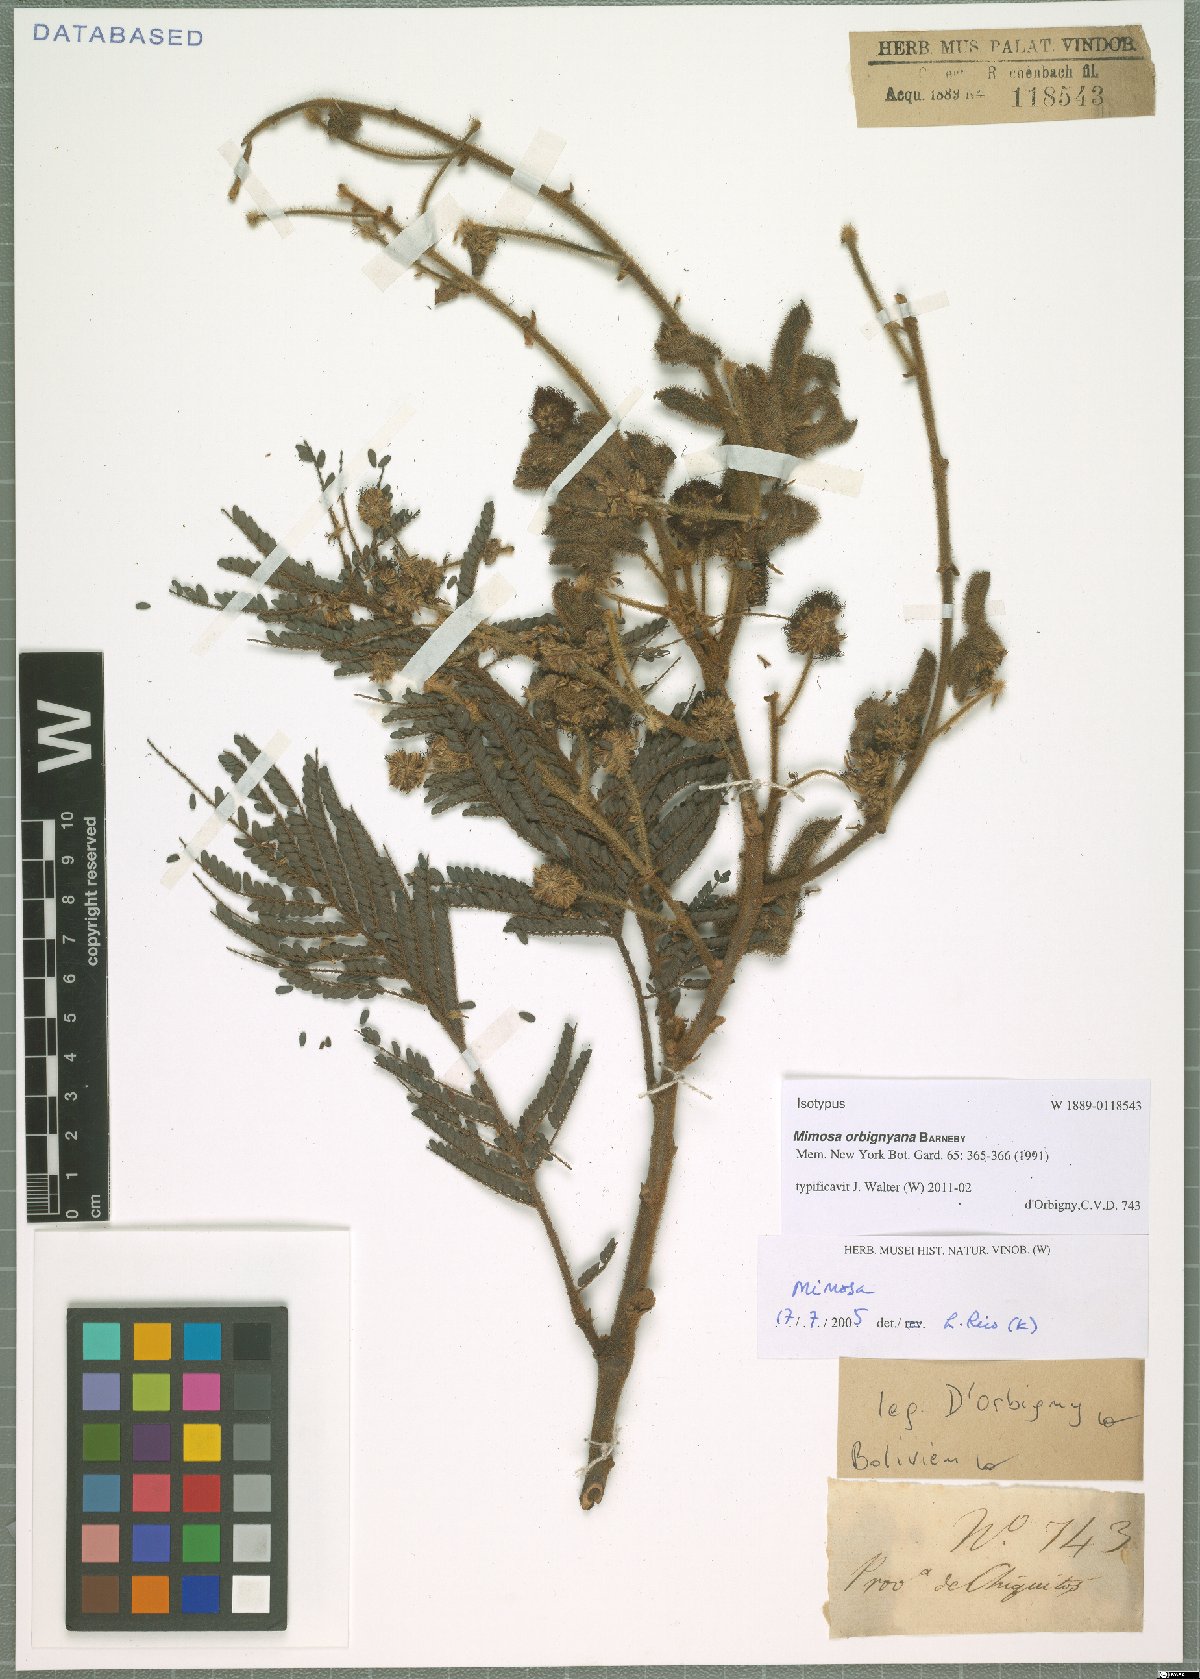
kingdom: Plantae
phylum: Tracheophyta
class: Magnoliopsida
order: Fabales
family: Fabaceae
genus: Mimosa
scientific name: Mimosa orbignyana
